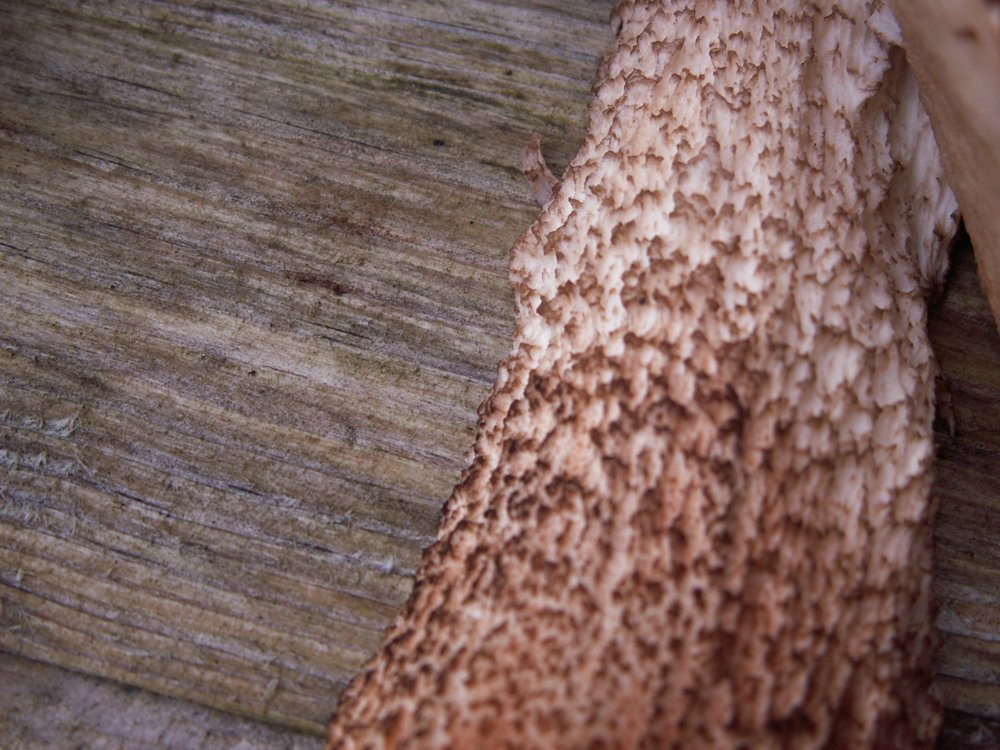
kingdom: Fungi
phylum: Basidiomycota
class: Agaricomycetes
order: Boletales
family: Boletaceae
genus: Leccinum
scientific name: Leccinum aurantiacum
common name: rustrød skælrørhat
